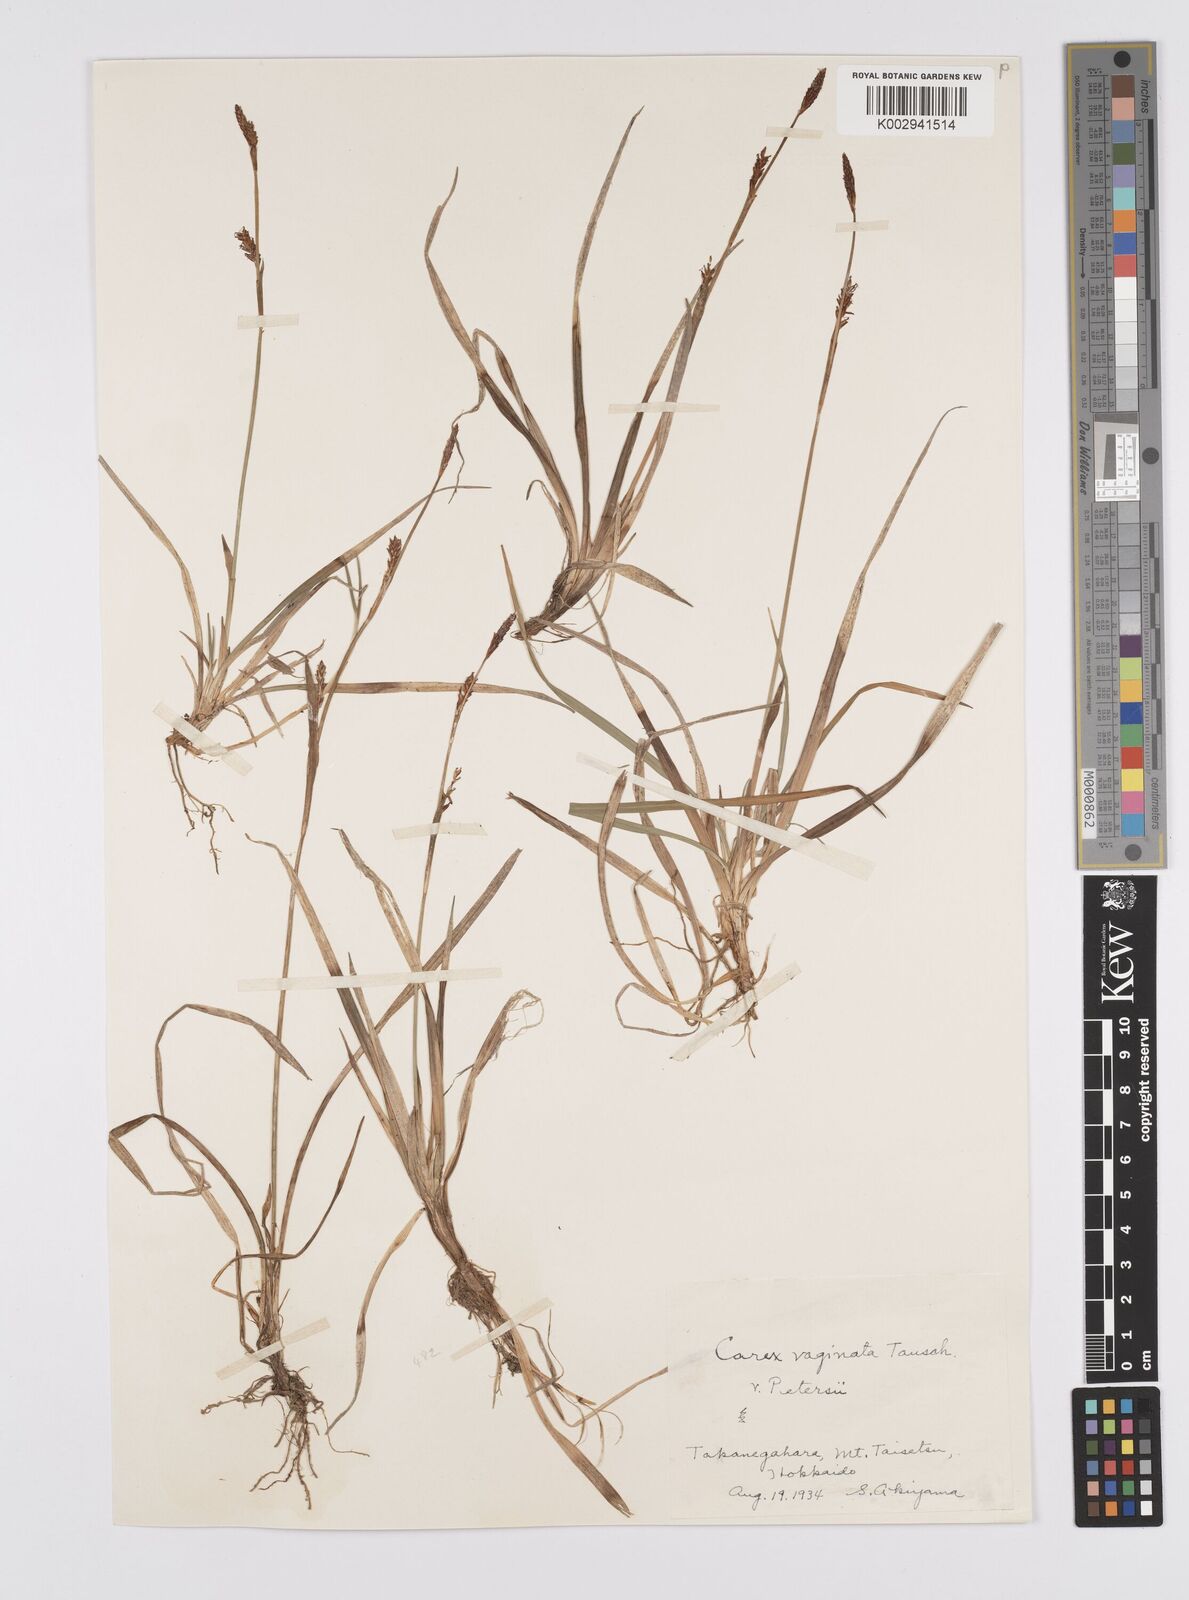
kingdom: Plantae
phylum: Tracheophyta
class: Liliopsida
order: Poales
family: Cyperaceae
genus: Carex
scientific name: Carex vaginata
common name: Sheathed sedge
